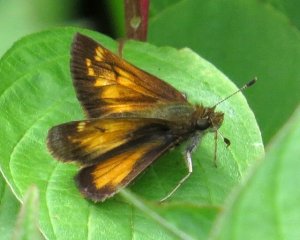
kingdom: Animalia
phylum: Arthropoda
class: Insecta
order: Lepidoptera
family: Hesperiidae
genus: Lon
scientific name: Lon hobomok
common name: Hobomok Skipper
